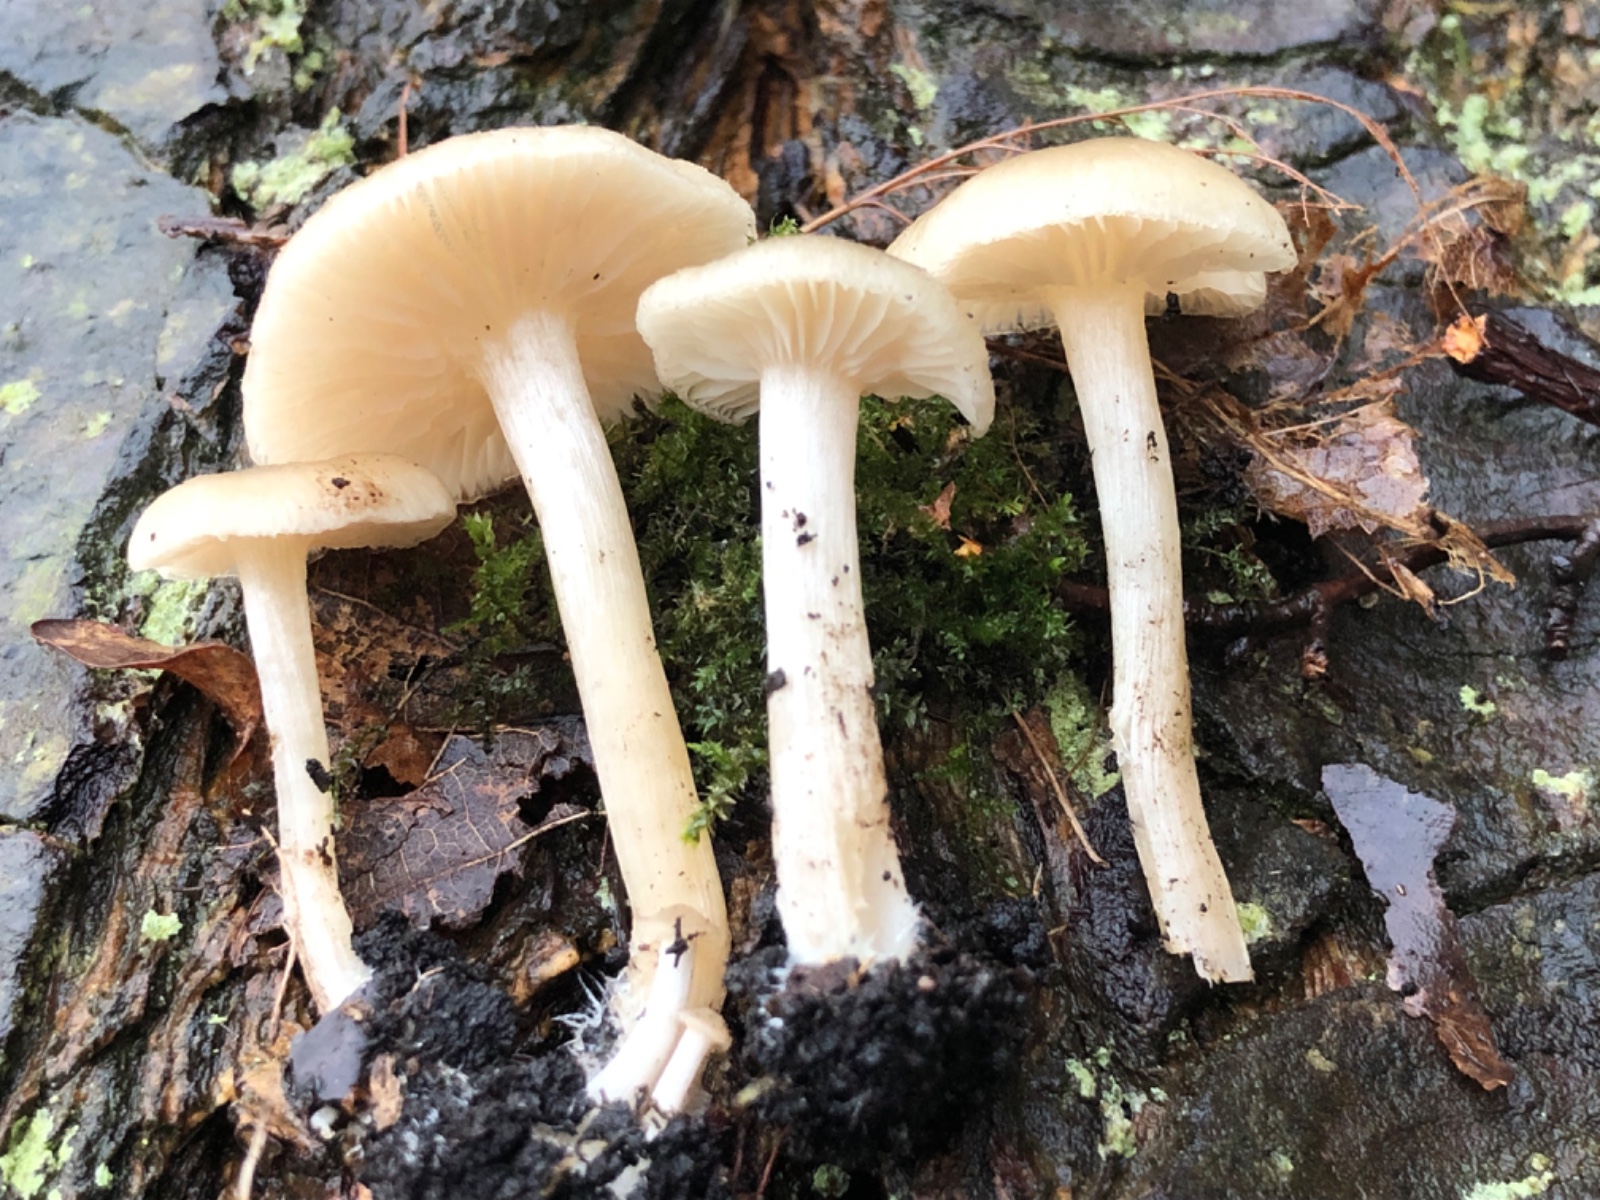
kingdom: Fungi
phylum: Basidiomycota
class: Agaricomycetes
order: Agaricales
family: Entolomataceae
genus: Entoloma
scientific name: Entoloma
